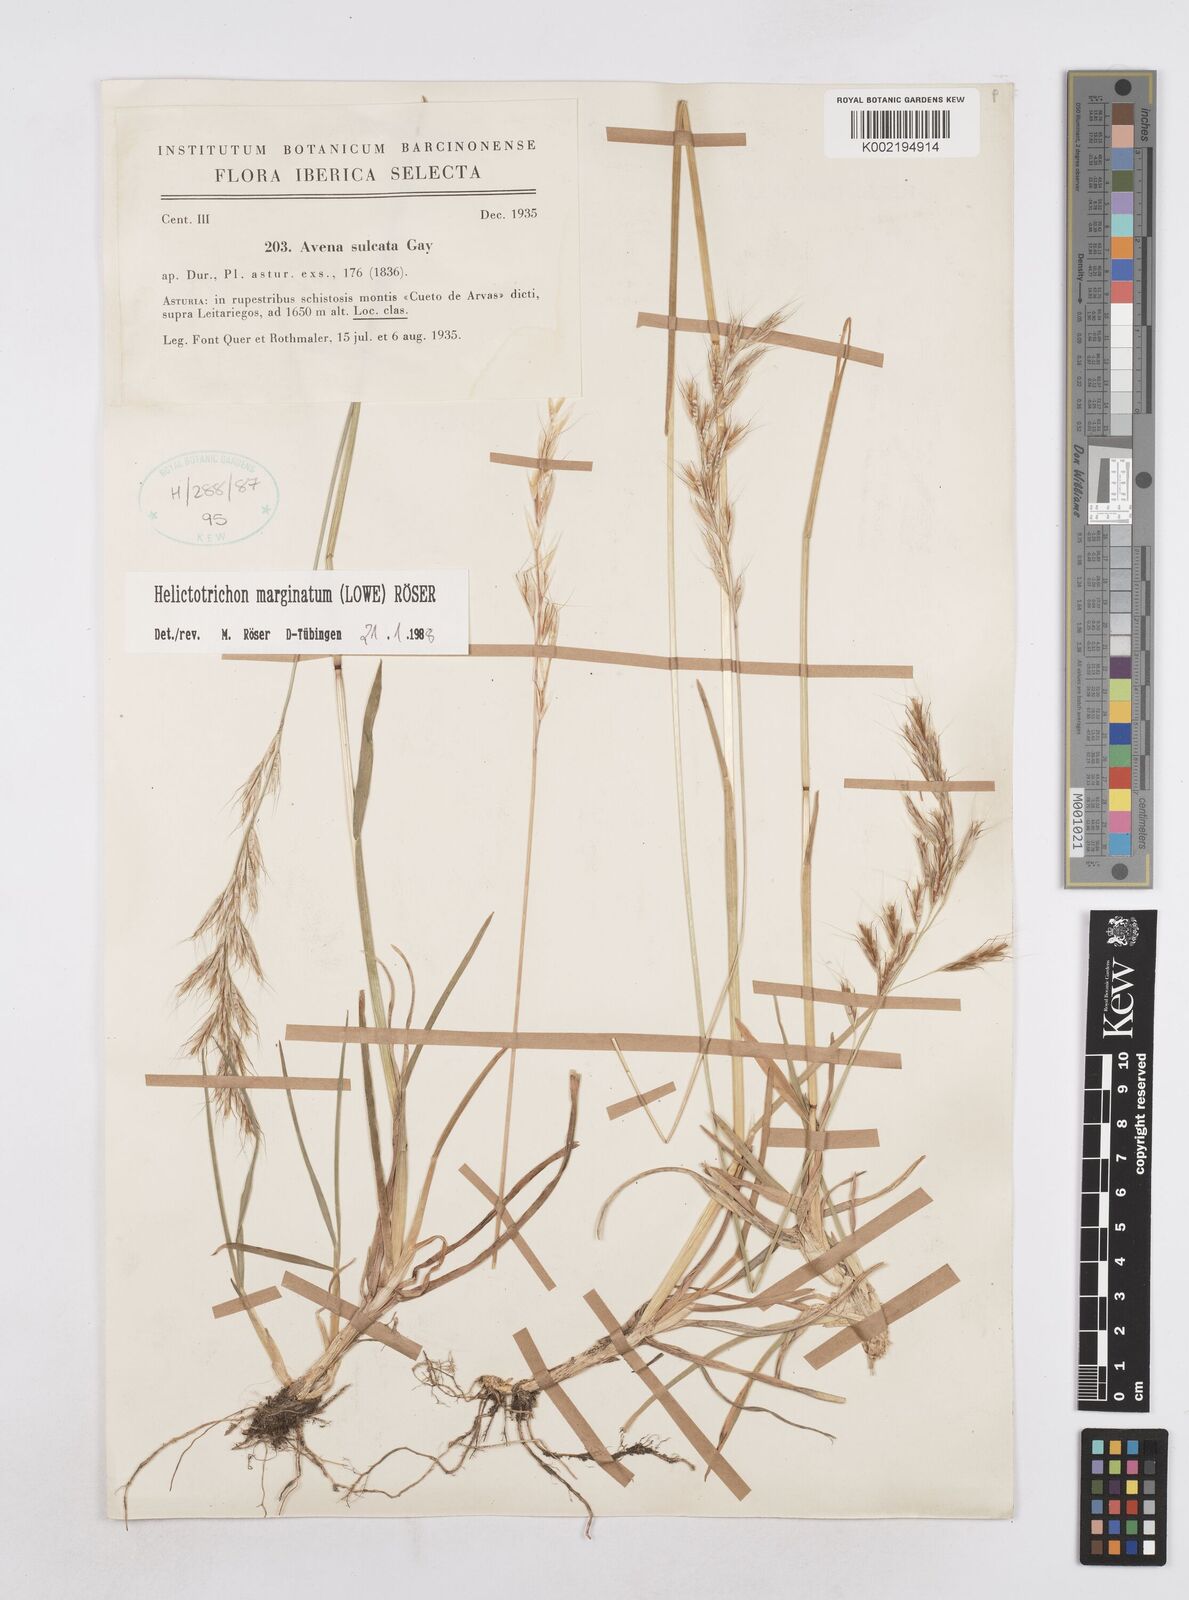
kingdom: Plantae
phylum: Tracheophyta
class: Liliopsida
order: Poales
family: Poaceae
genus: Helictotrichon
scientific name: Helictotrichon
